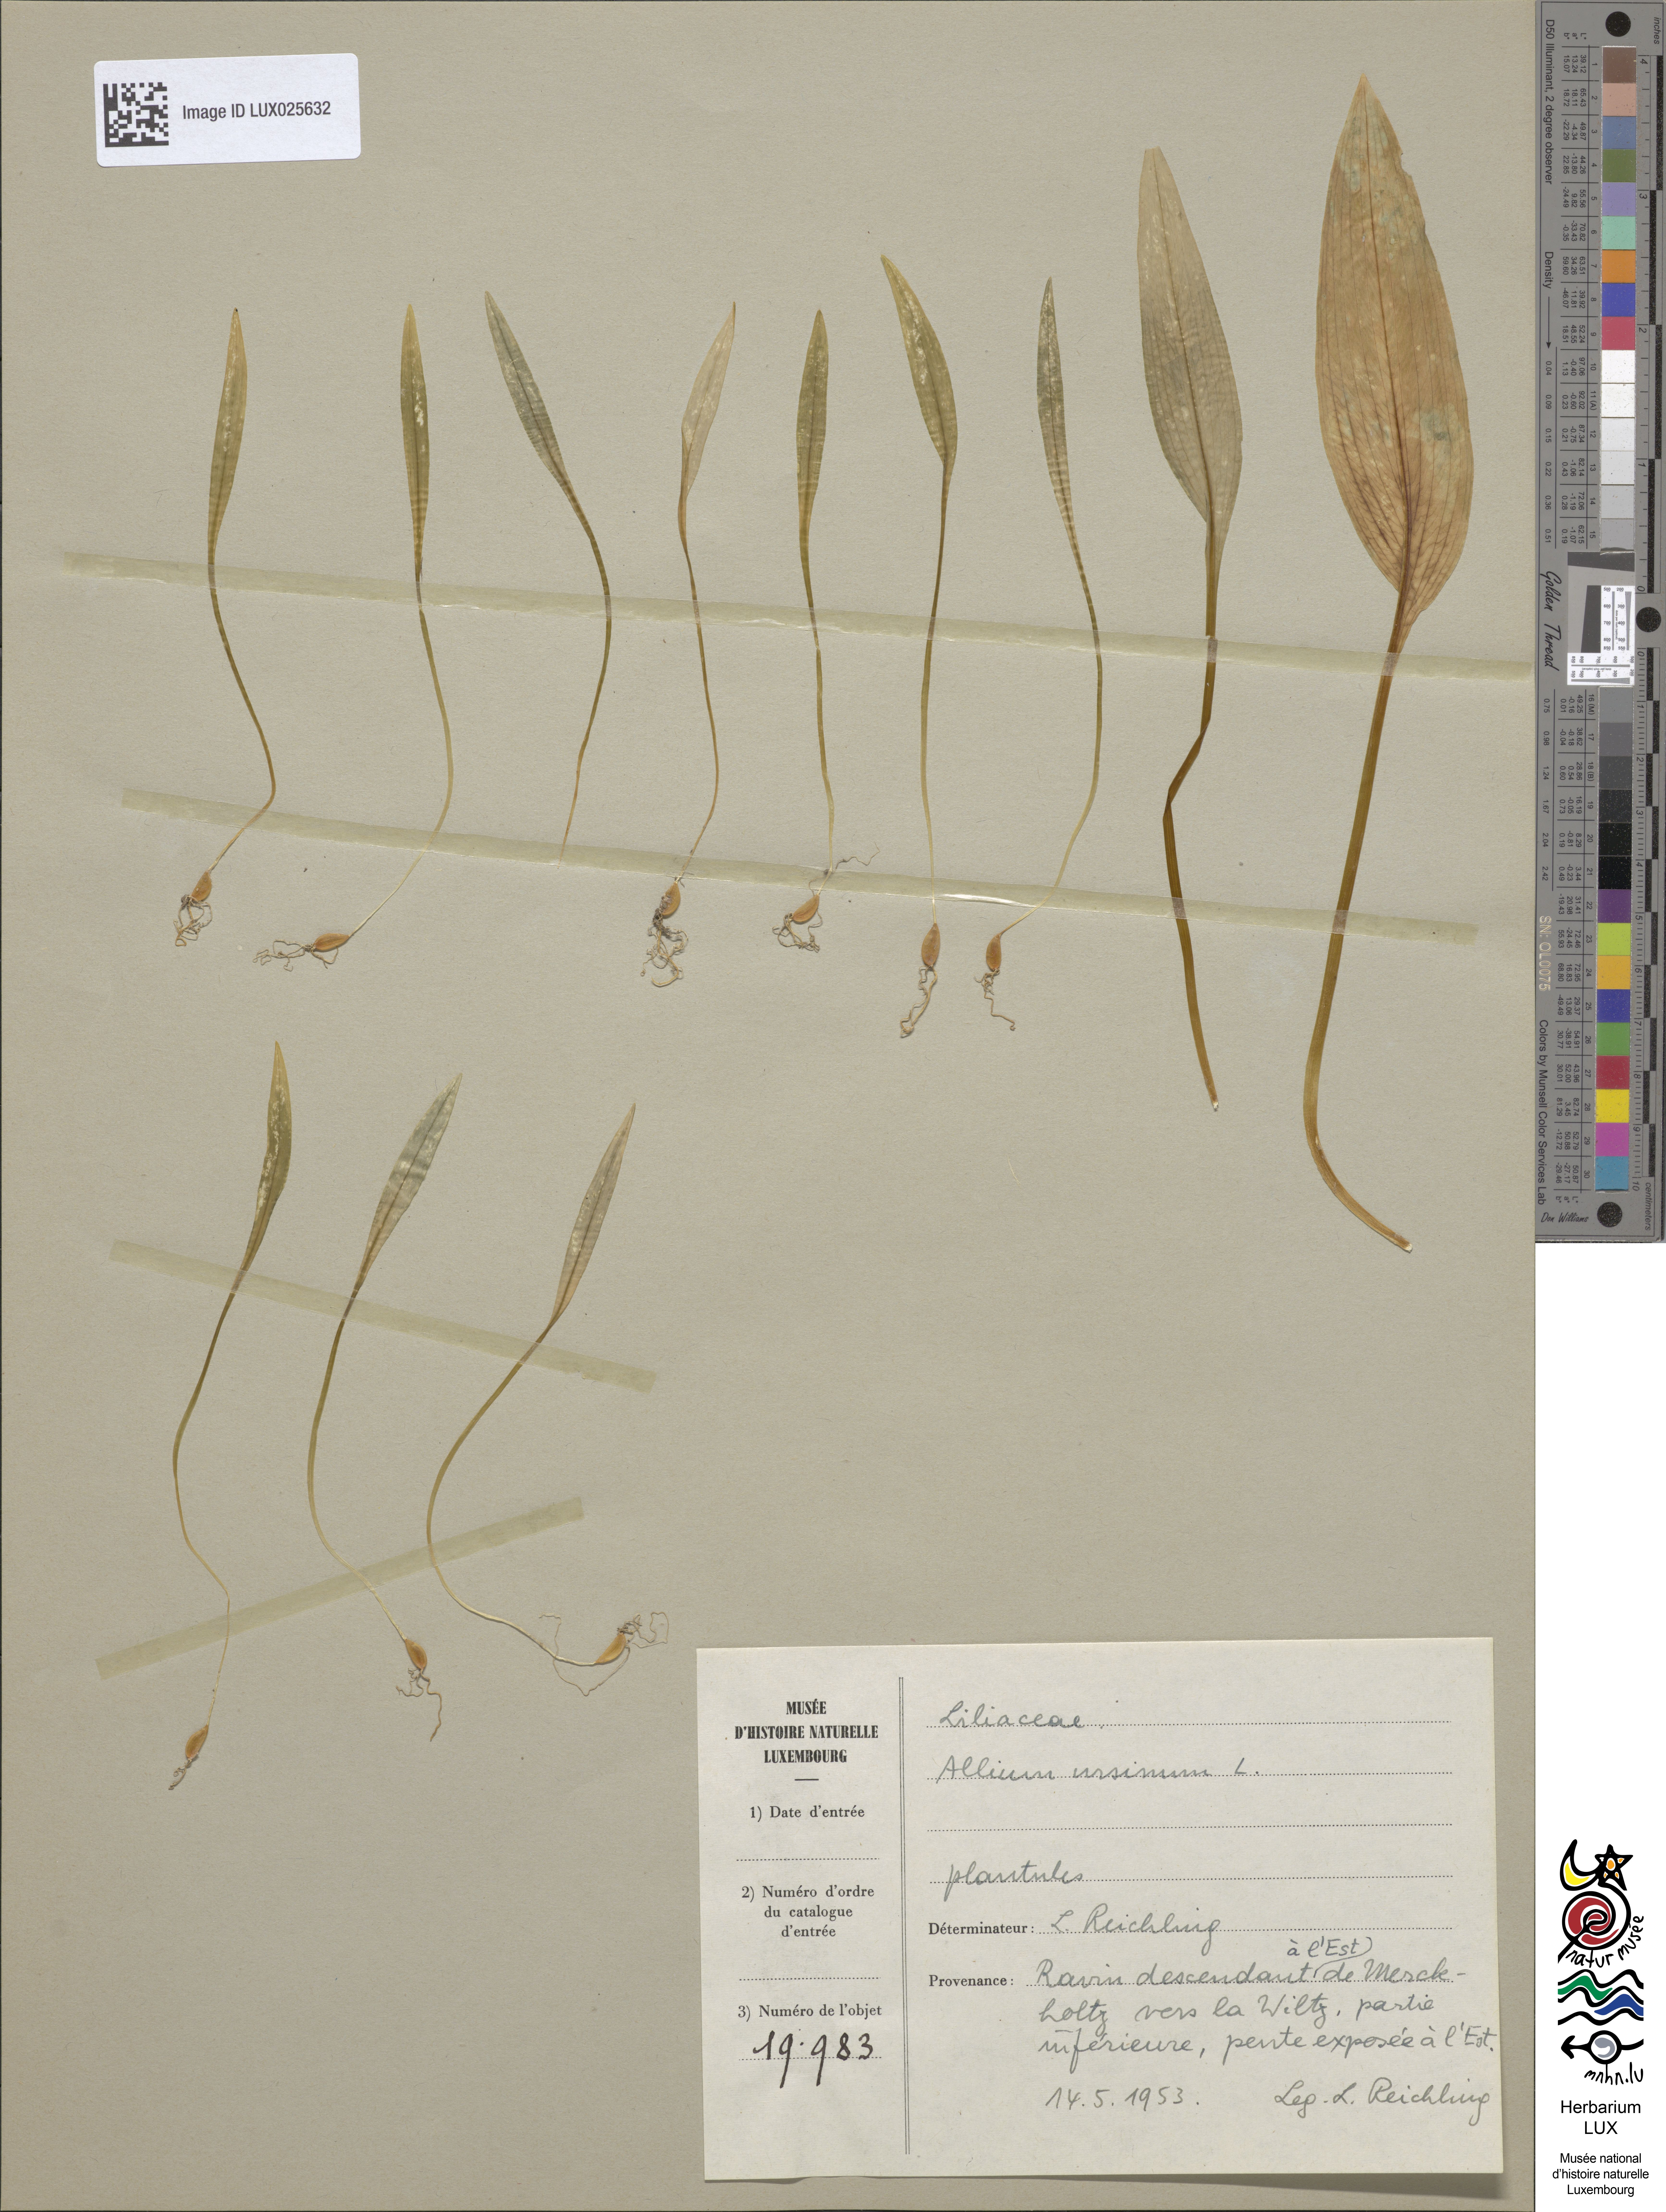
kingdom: Plantae
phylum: Tracheophyta
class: Liliopsida
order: Asparagales
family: Amaryllidaceae
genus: Allium
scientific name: Allium ursinum
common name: Ramsons
